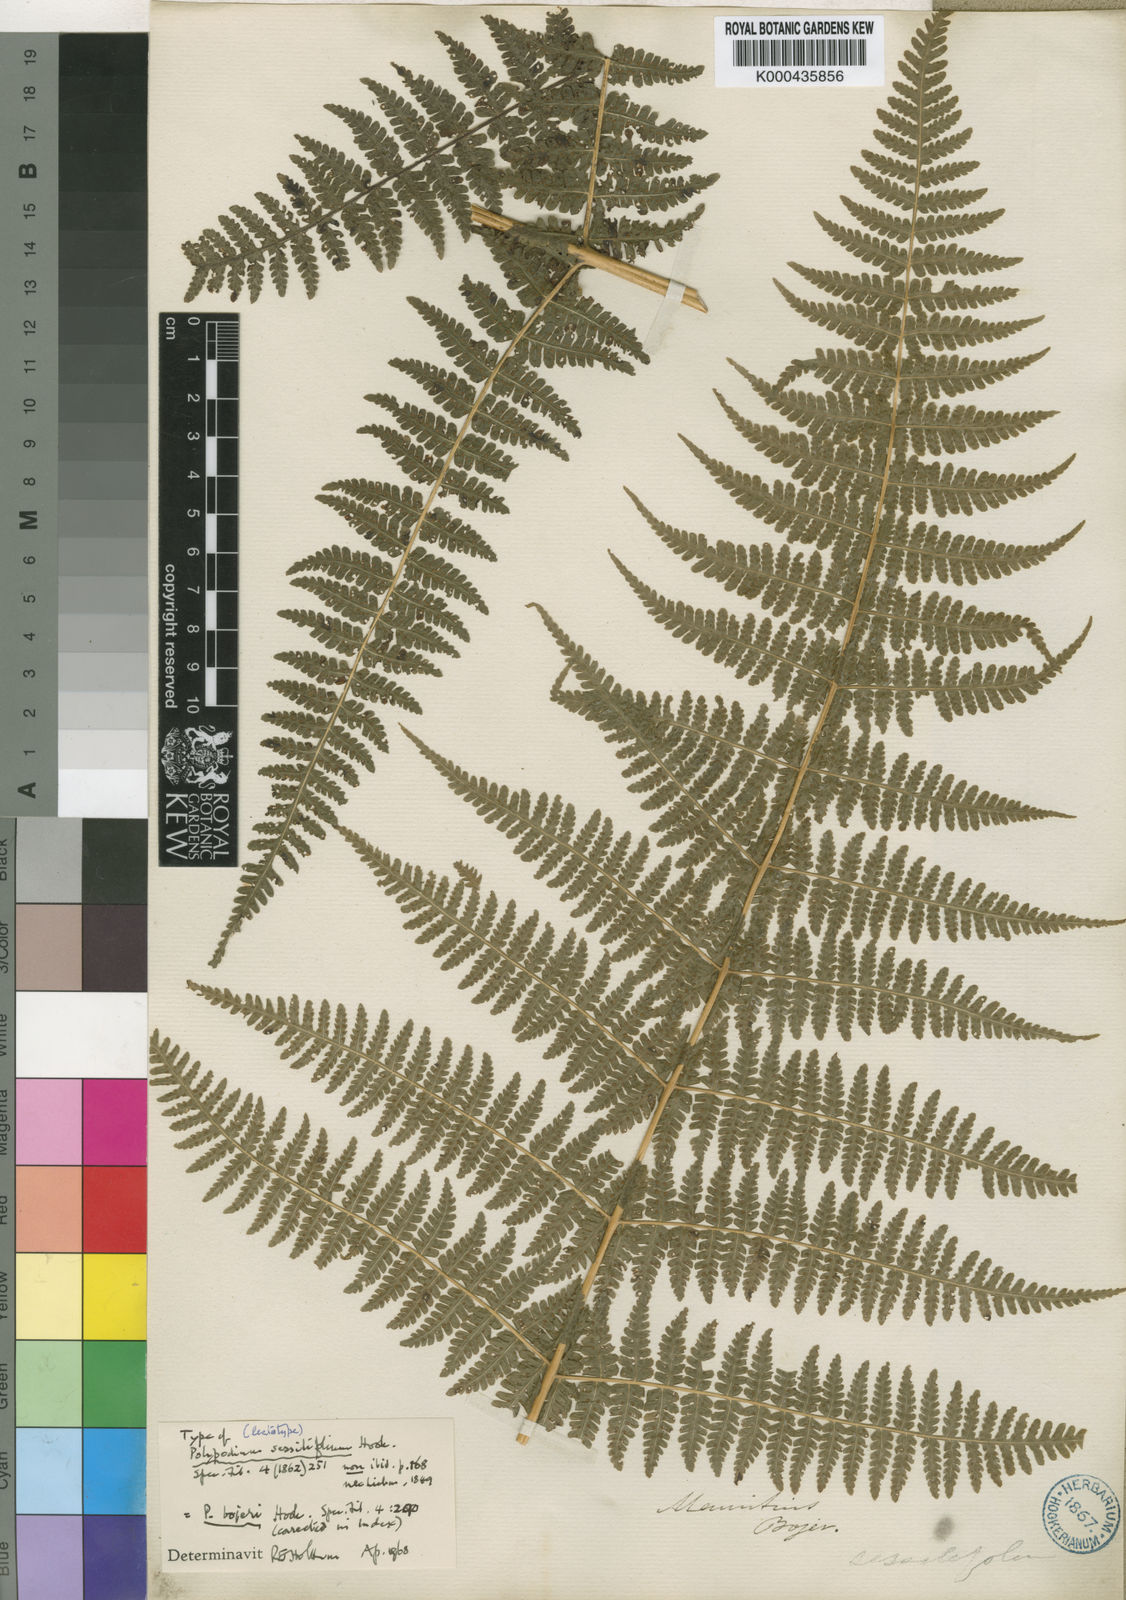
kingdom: Plantae
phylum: Tracheophyta
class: Polypodiopsida
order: Polypodiales
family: Thelypteridaceae
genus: Pseudophegopteris
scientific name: Pseudophegopteris cruciata
